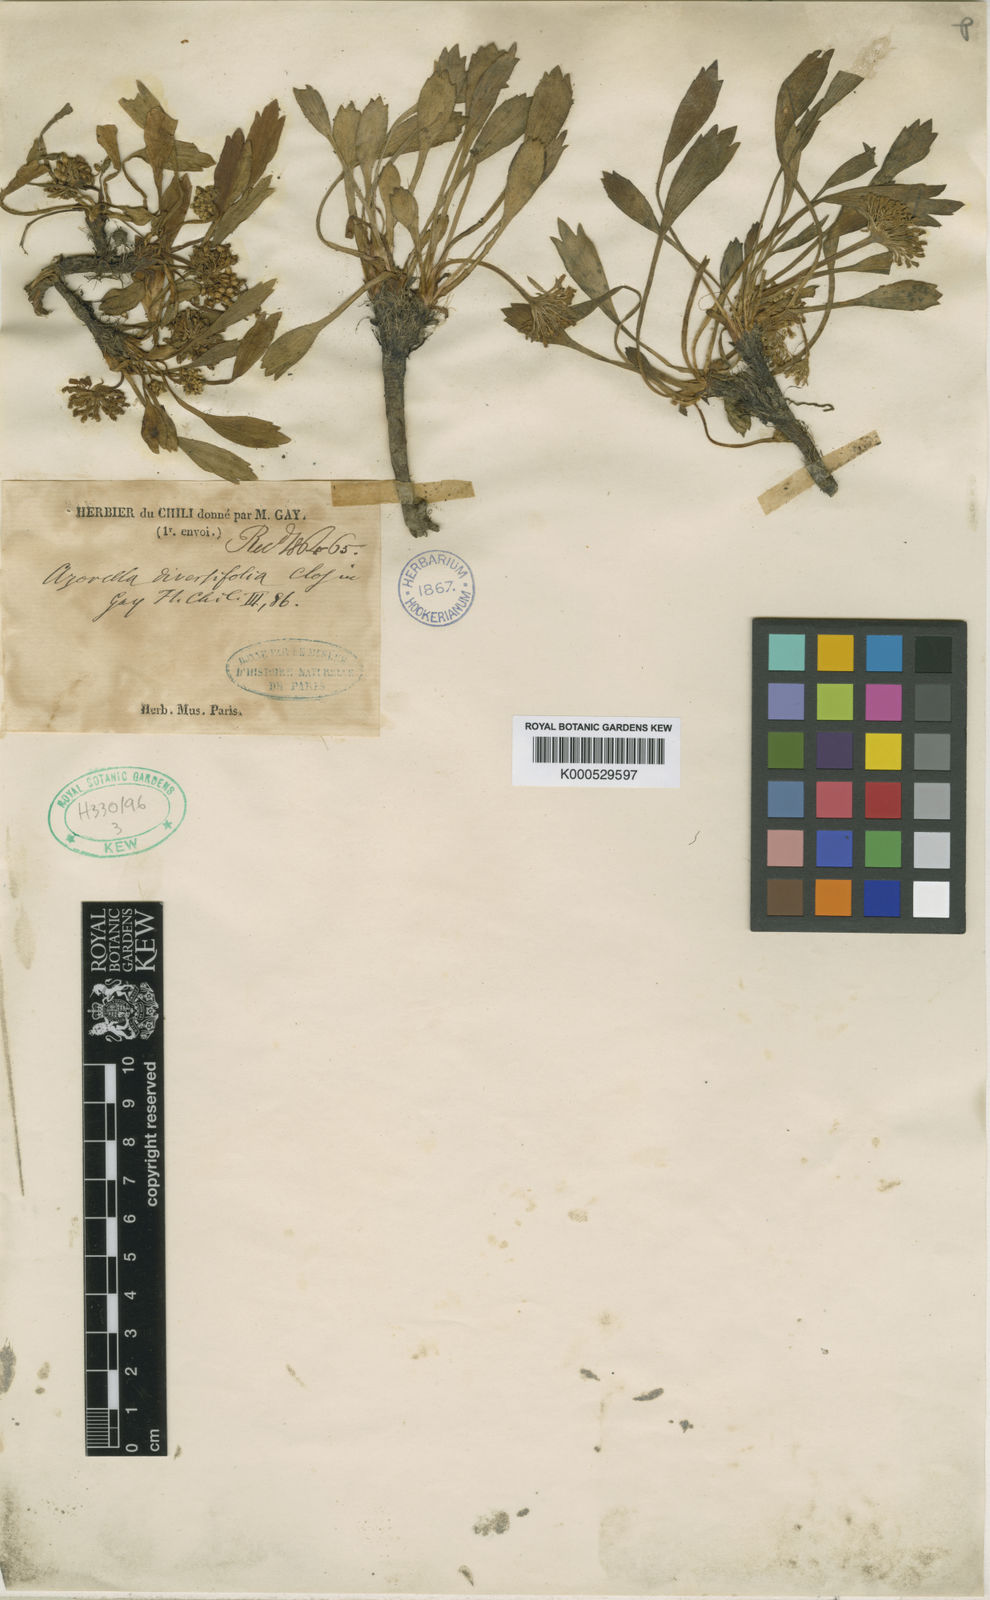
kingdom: Plantae
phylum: Tracheophyta
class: Magnoliopsida
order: Apiales
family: Apiaceae
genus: Azorella
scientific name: Azorella diversifolia
